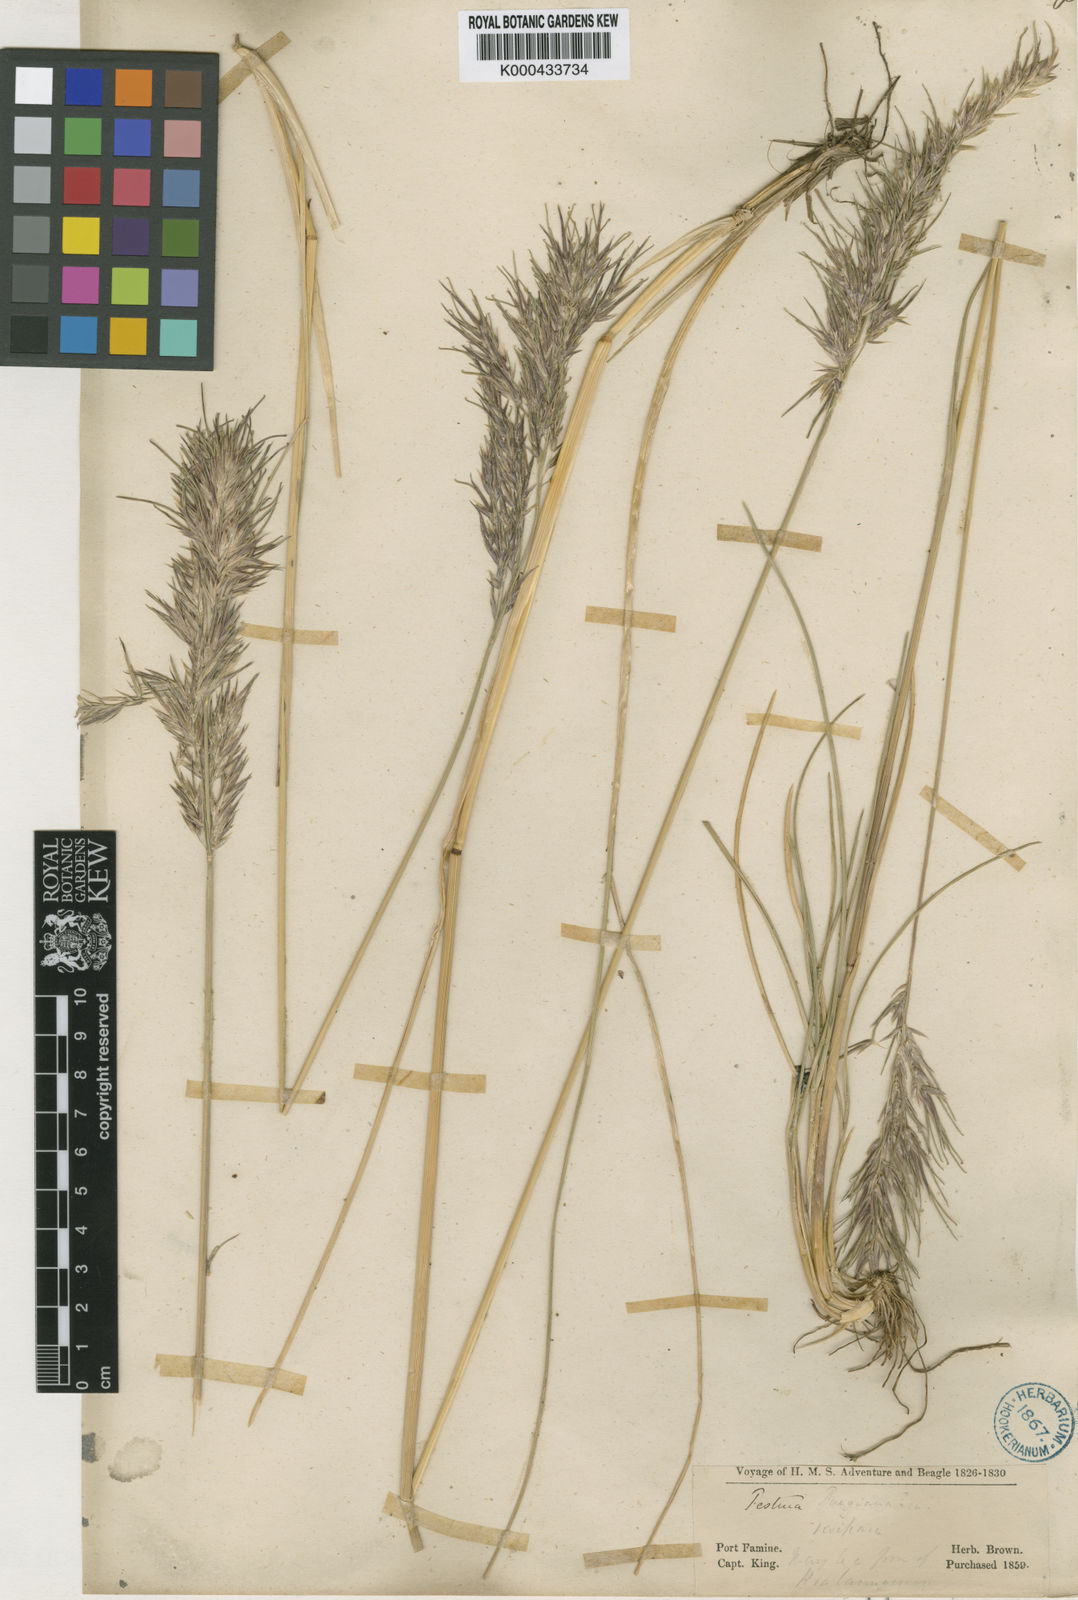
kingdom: Plantae
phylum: Tracheophyta
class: Liliopsida
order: Poales
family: Poaceae
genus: Poa
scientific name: Poa alopecurus
